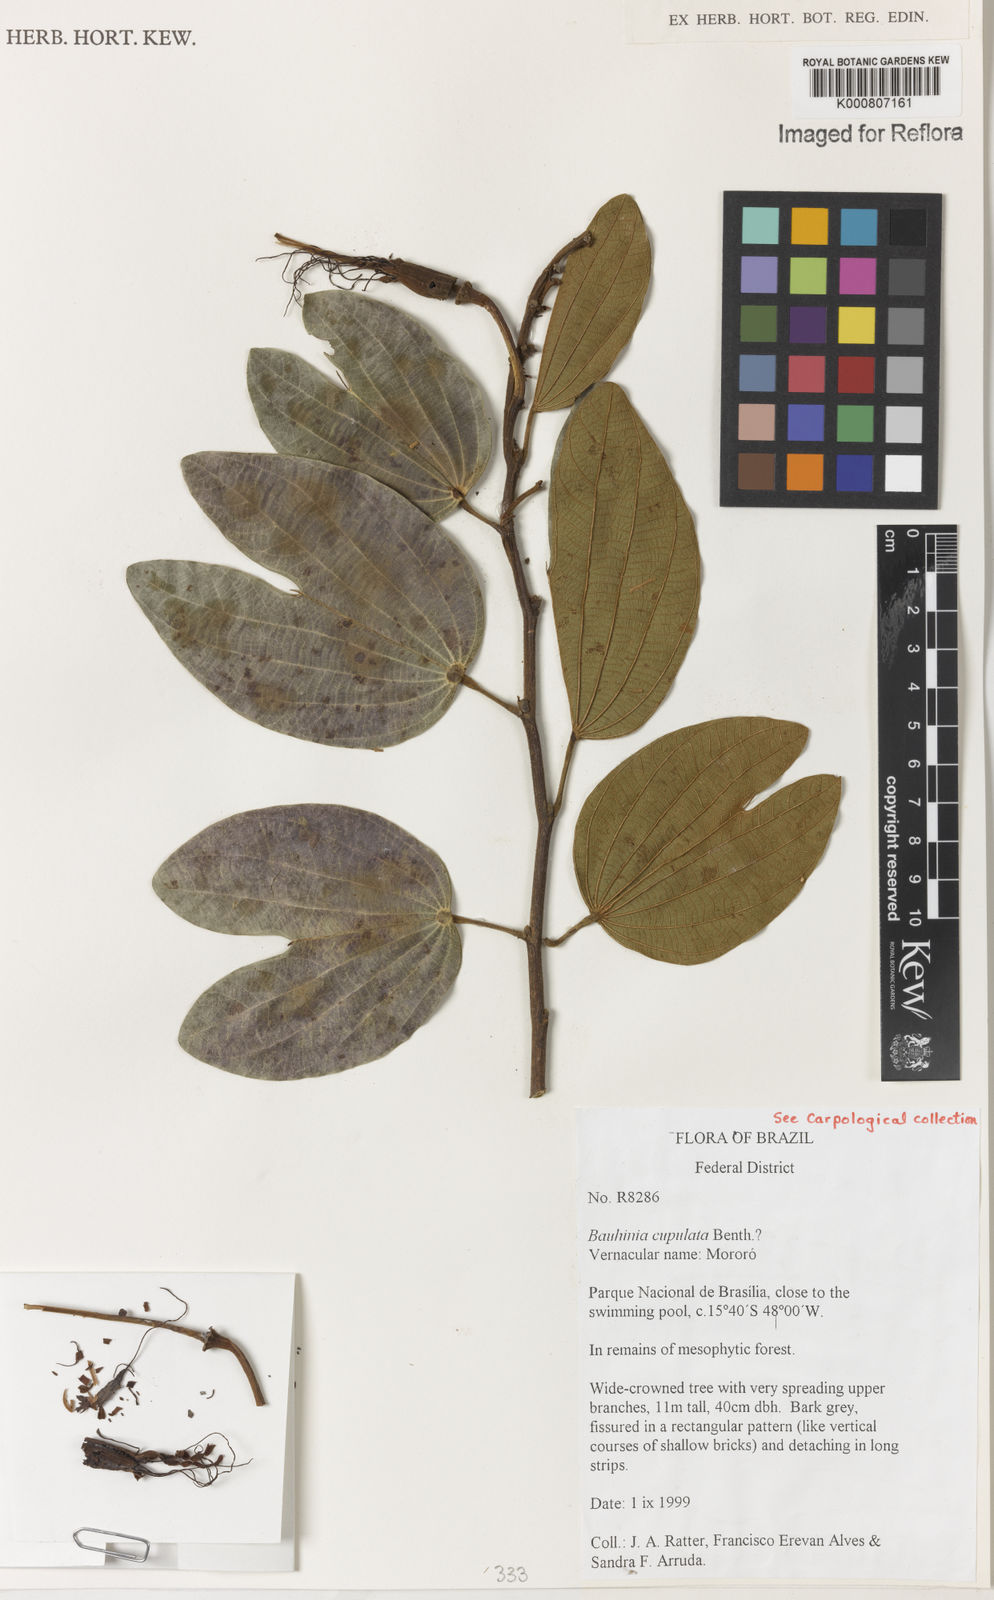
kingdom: Plantae
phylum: Tracheophyta
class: Magnoliopsida
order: Fabales
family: Fabaceae
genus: Bauhinia
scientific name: Bauhinia cupulata
